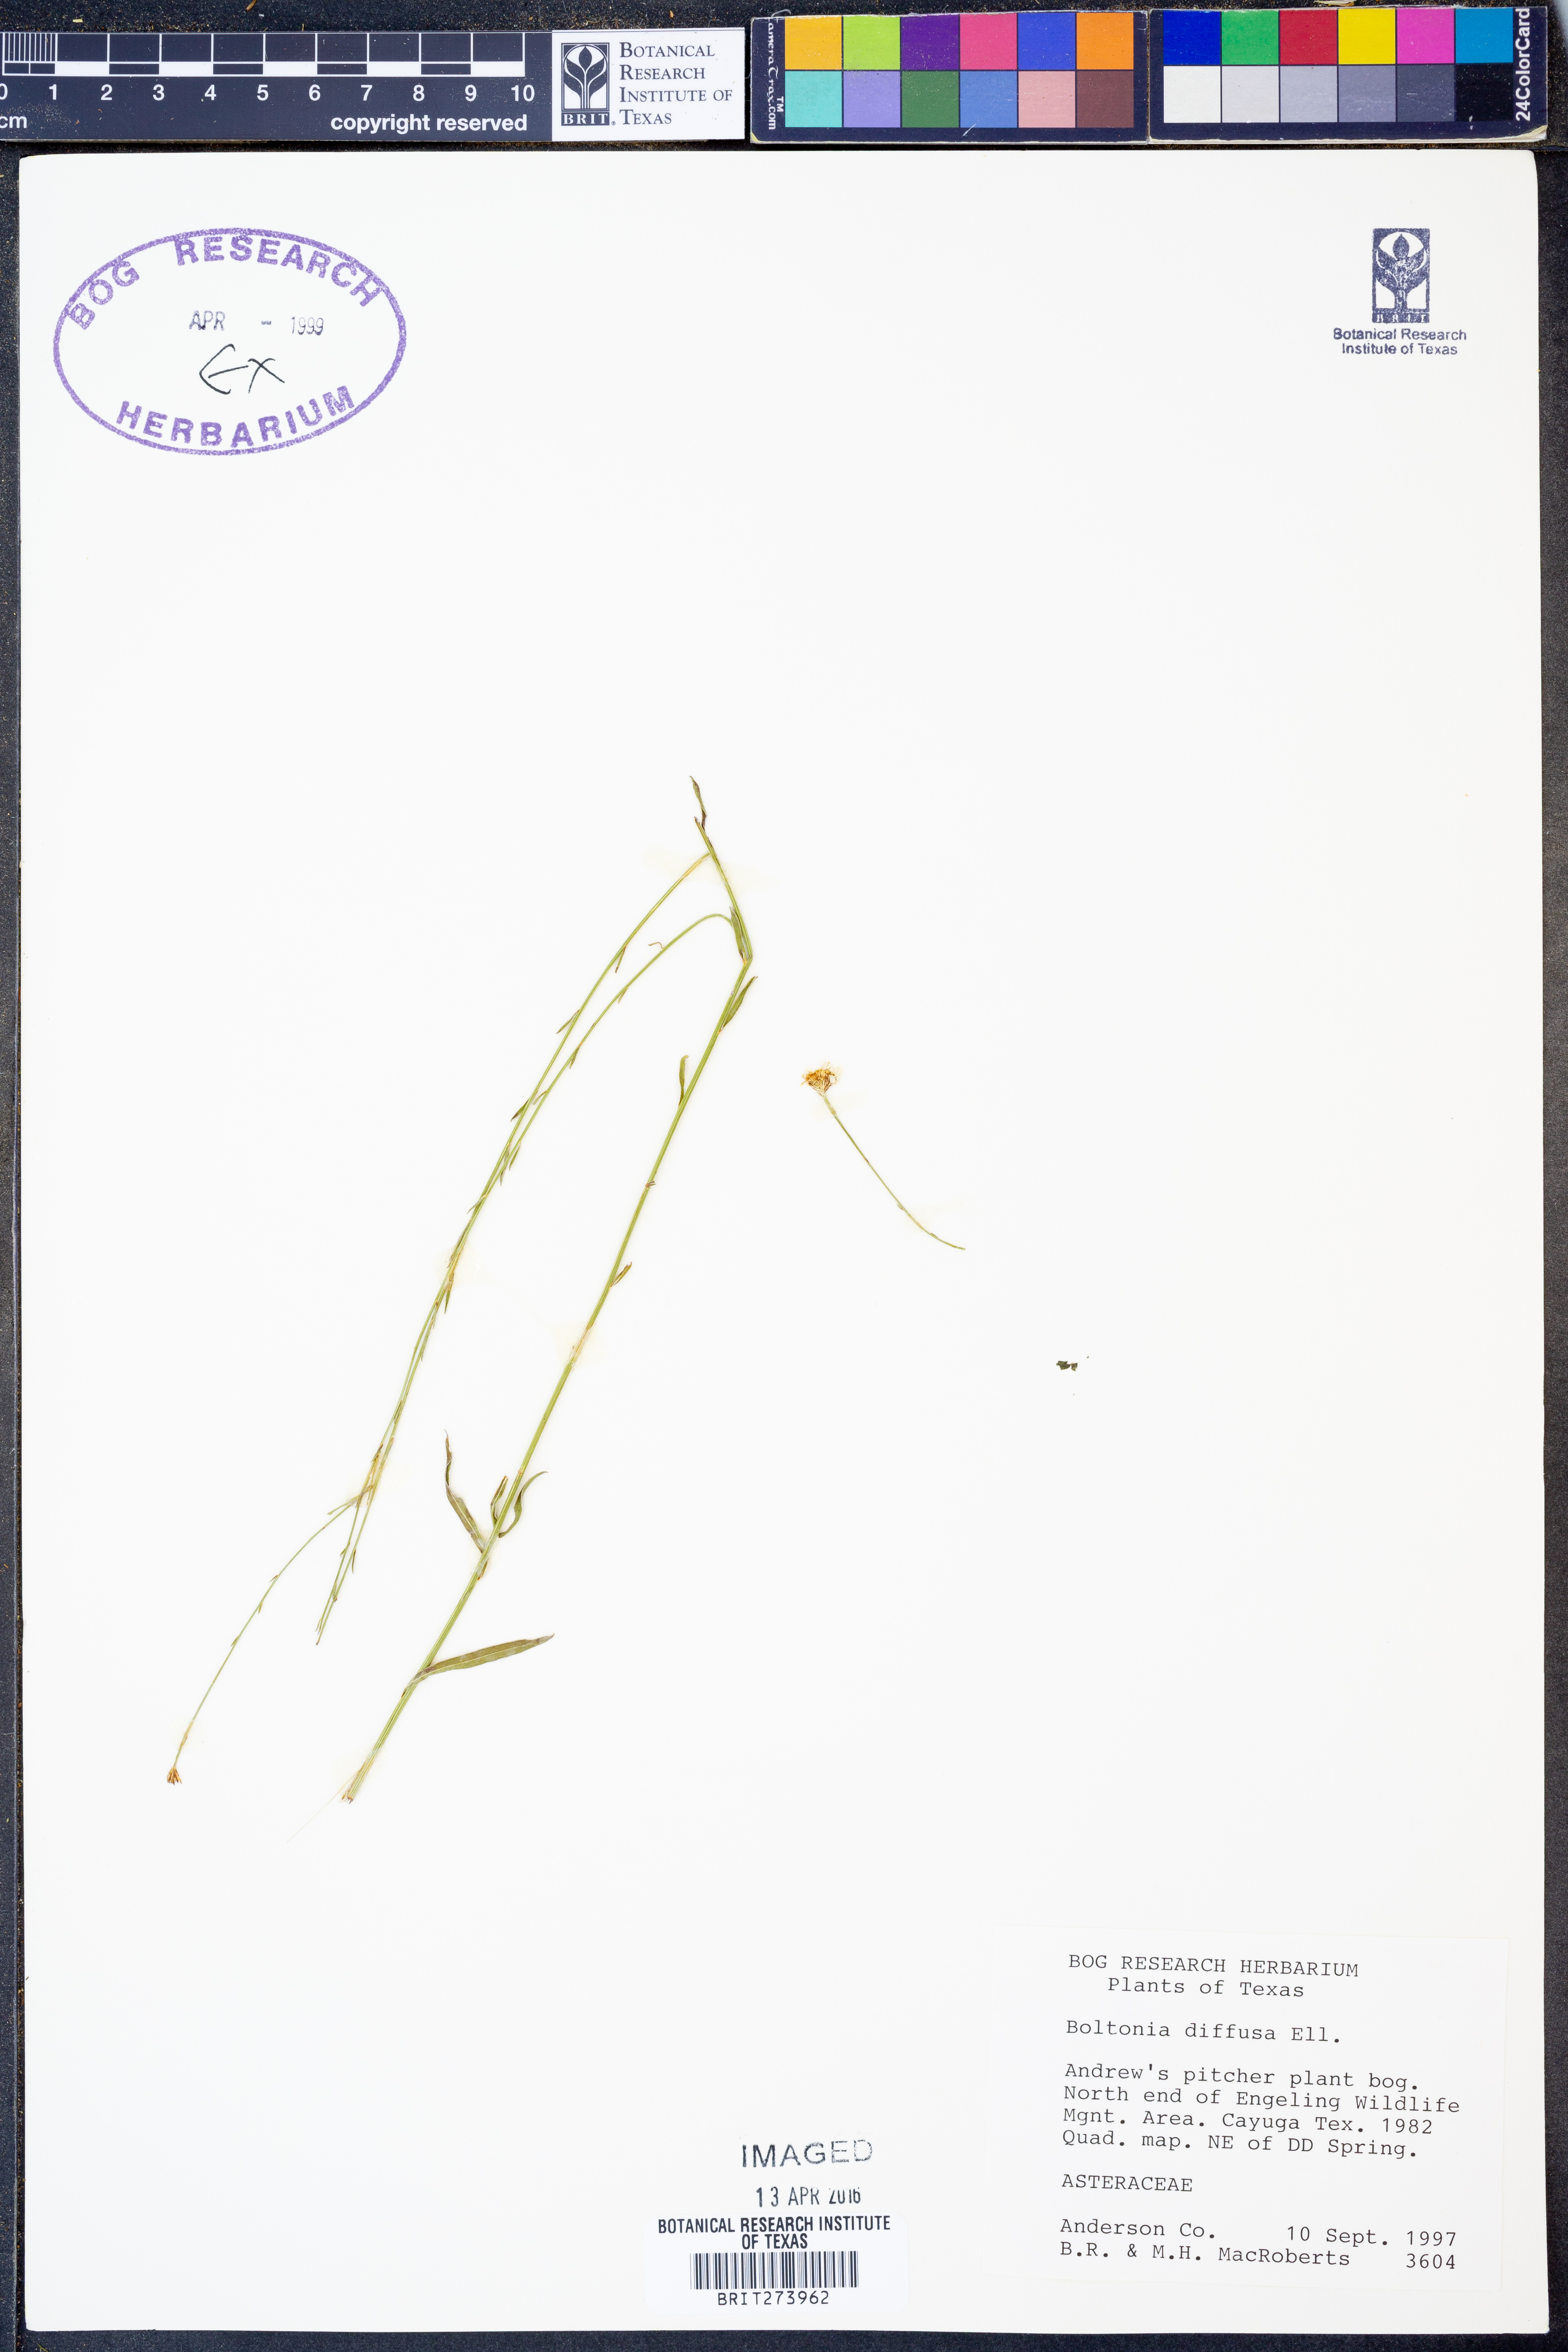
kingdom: Plantae
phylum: Tracheophyta
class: Magnoliopsida
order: Asterales
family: Asteraceae
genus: Boltonia
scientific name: Boltonia diffusa
